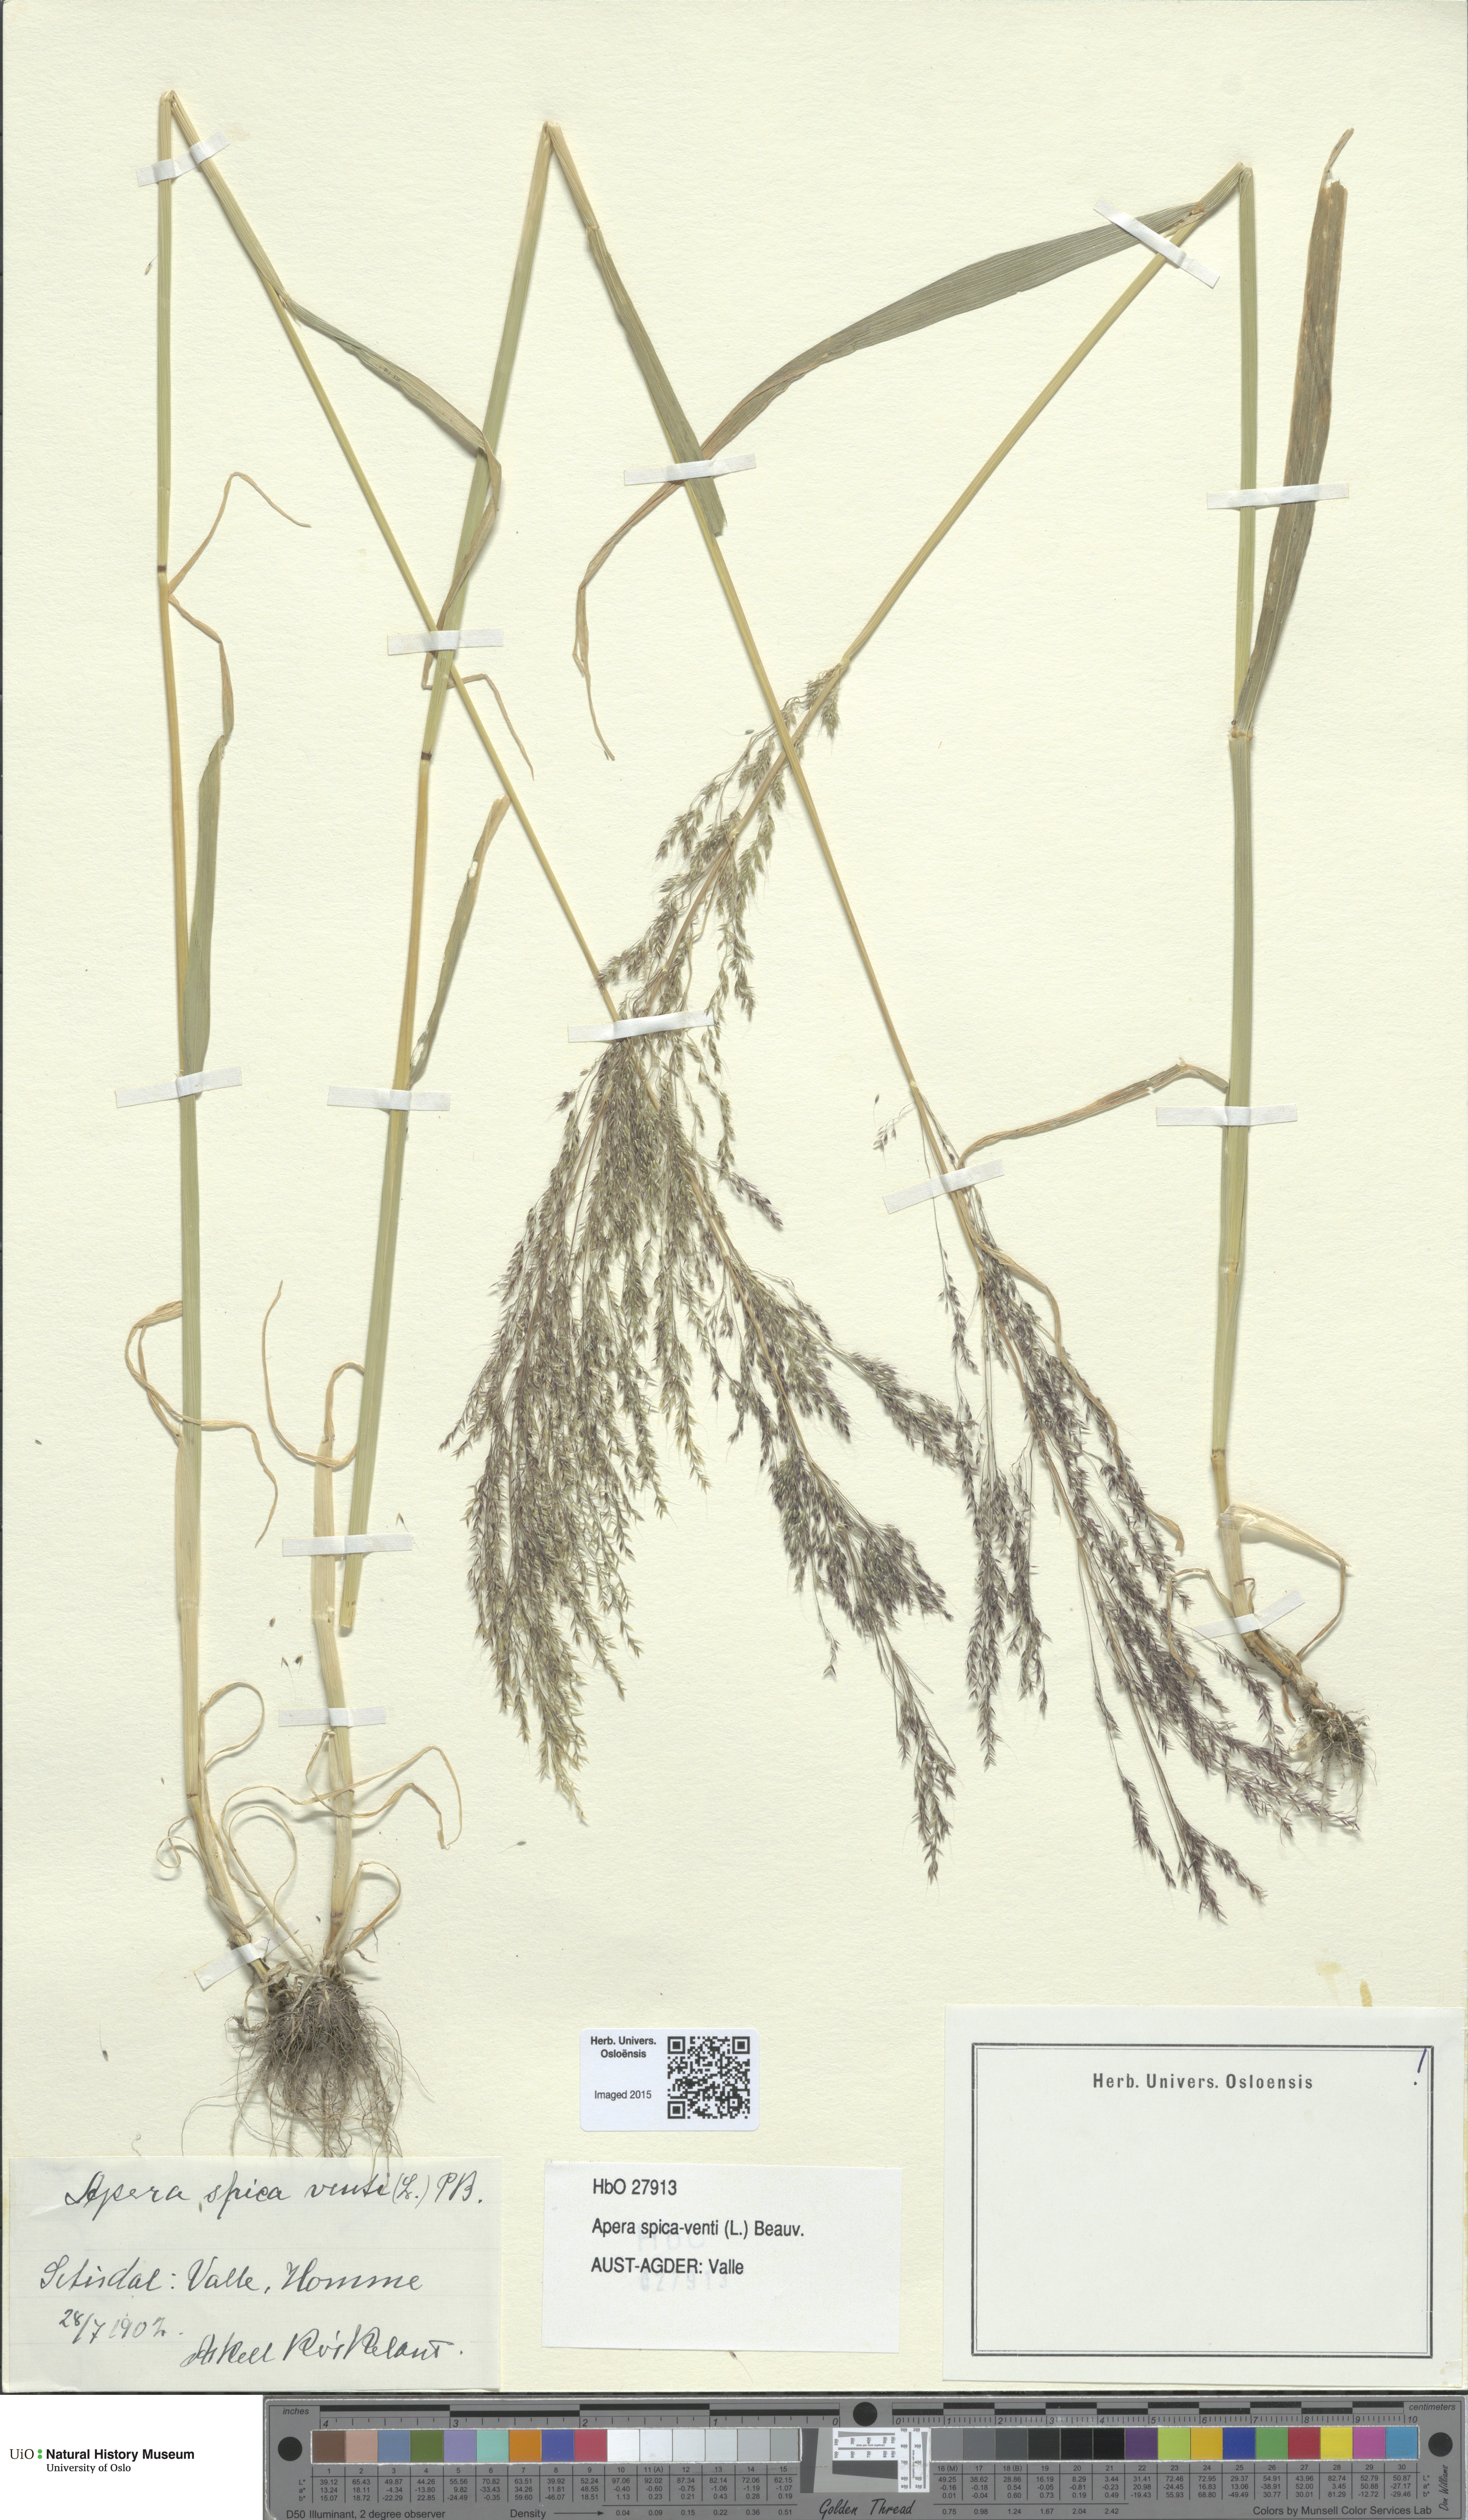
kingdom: Plantae
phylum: Tracheophyta
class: Liliopsida
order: Poales
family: Poaceae
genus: Apera
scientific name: Apera spica-venti
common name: Loose silky-bent
